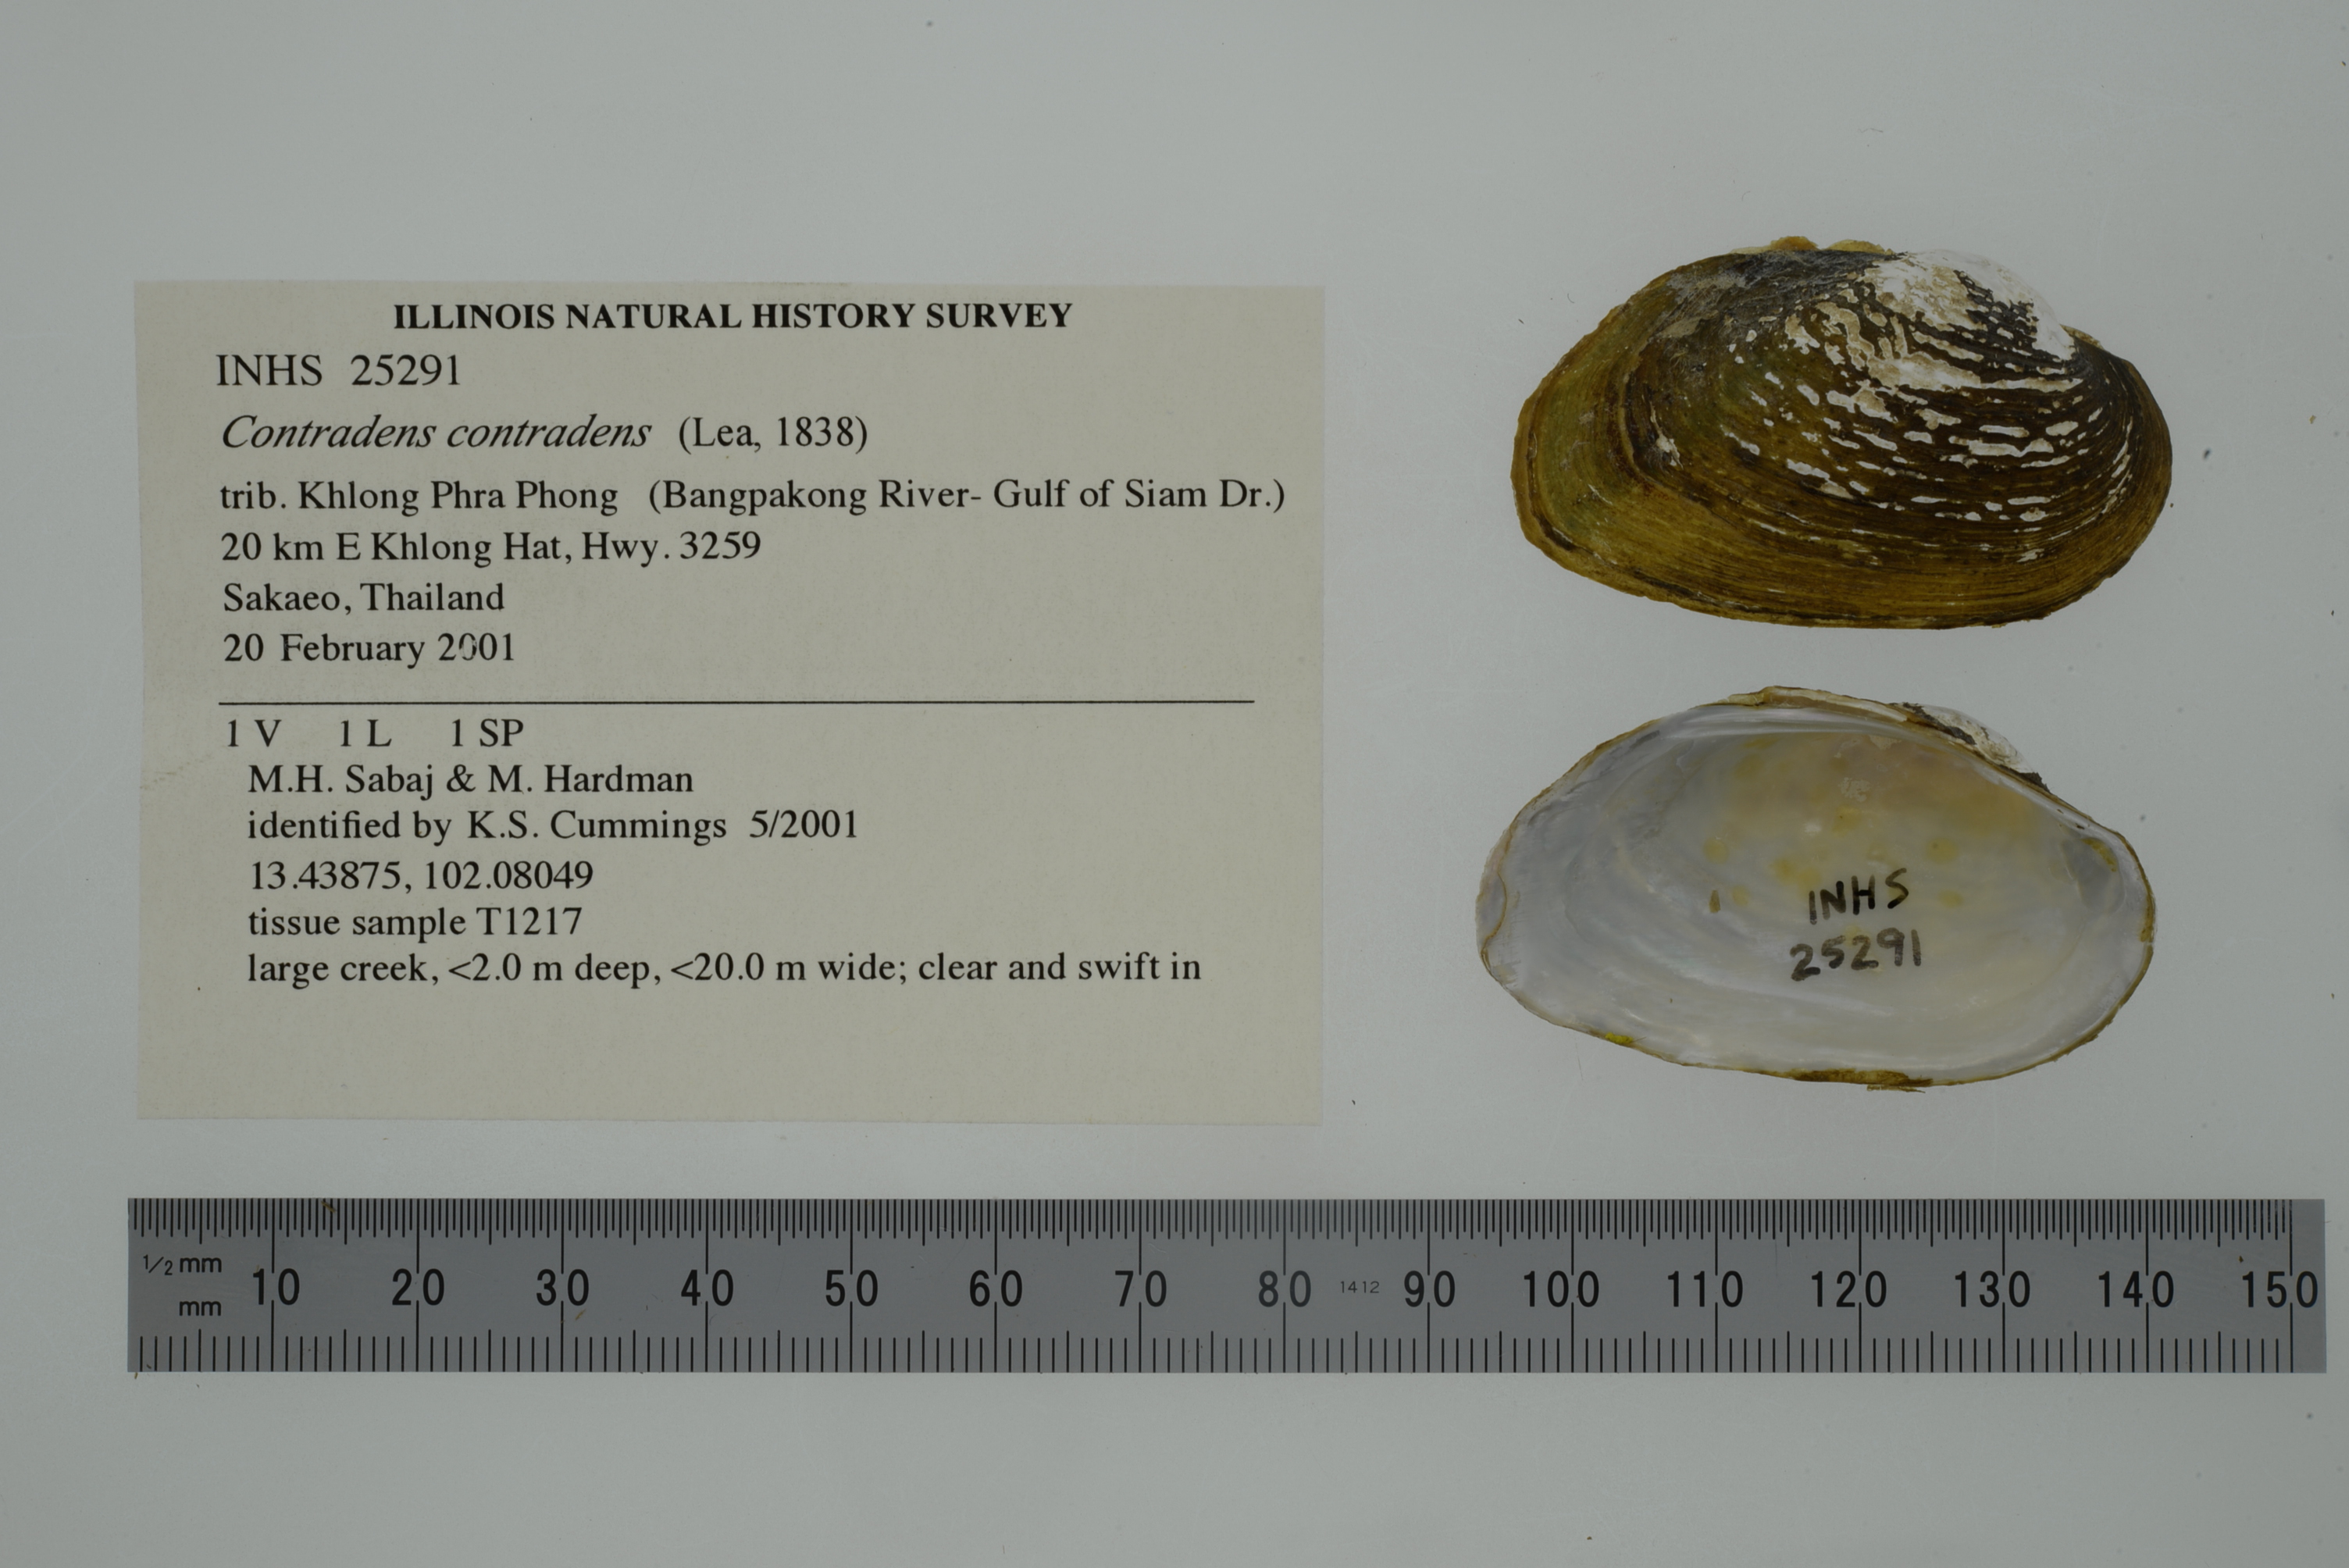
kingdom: Animalia
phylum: Mollusca
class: Bivalvia
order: Unionida
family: Unionidae
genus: Lens
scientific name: Lens contradens
